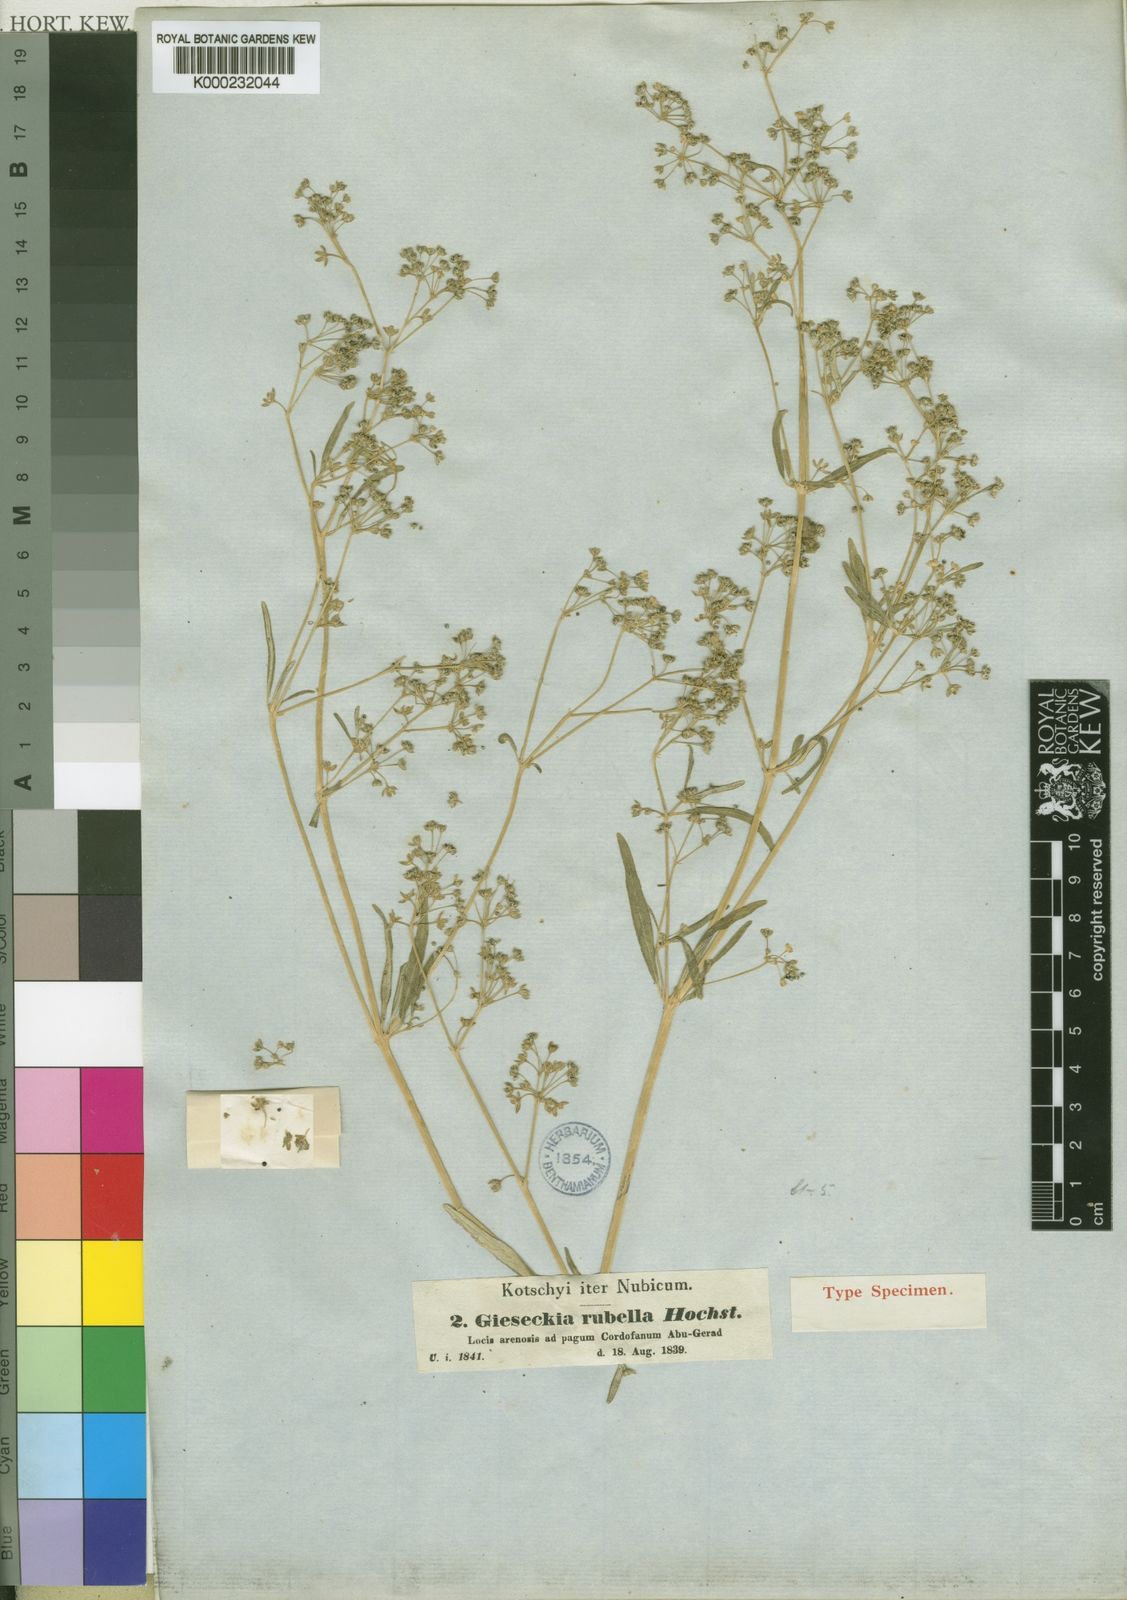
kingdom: Plantae
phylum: Tracheophyta
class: Magnoliopsida
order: Caryophyllales
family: Gisekiaceae
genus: Gisekia
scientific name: Gisekia pharnaceoides
